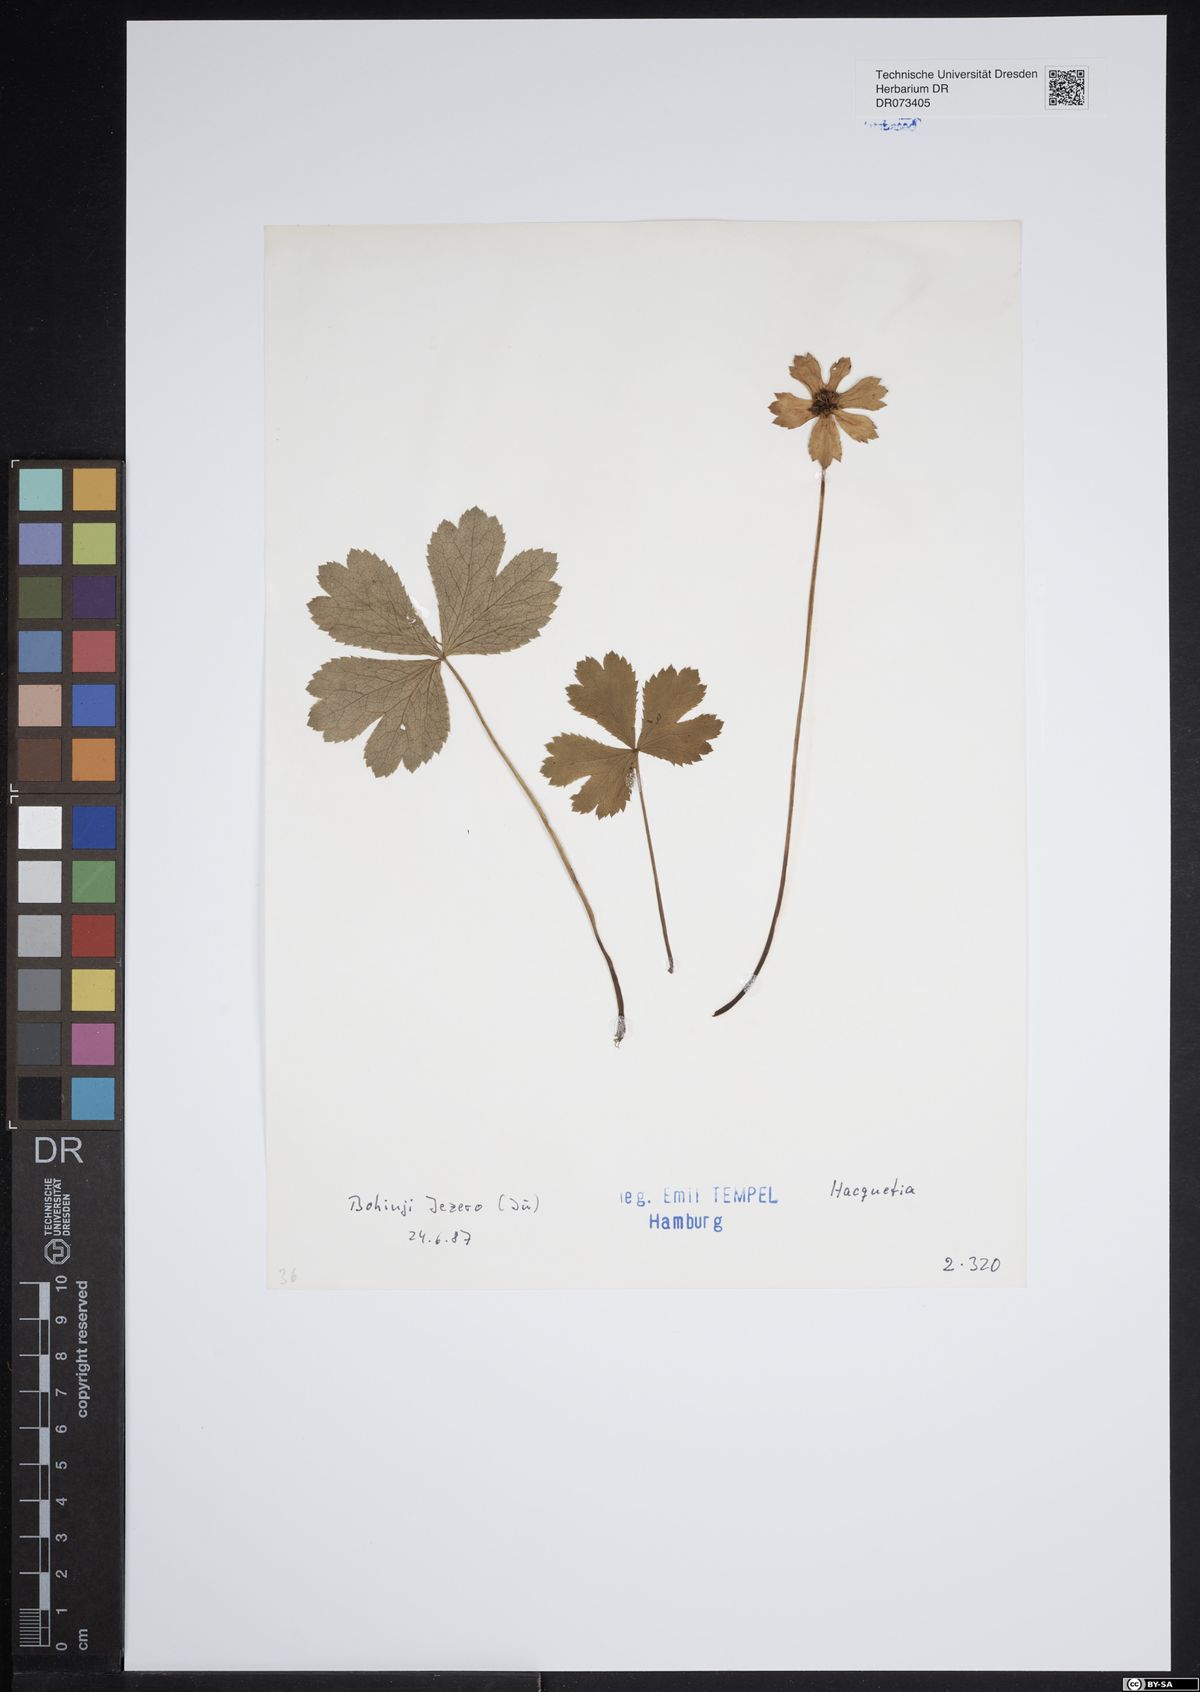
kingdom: Plantae
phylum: Tracheophyta
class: Magnoliopsida
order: Apiales
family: Apiaceae
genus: Hacquetia
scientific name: Hacquetia
